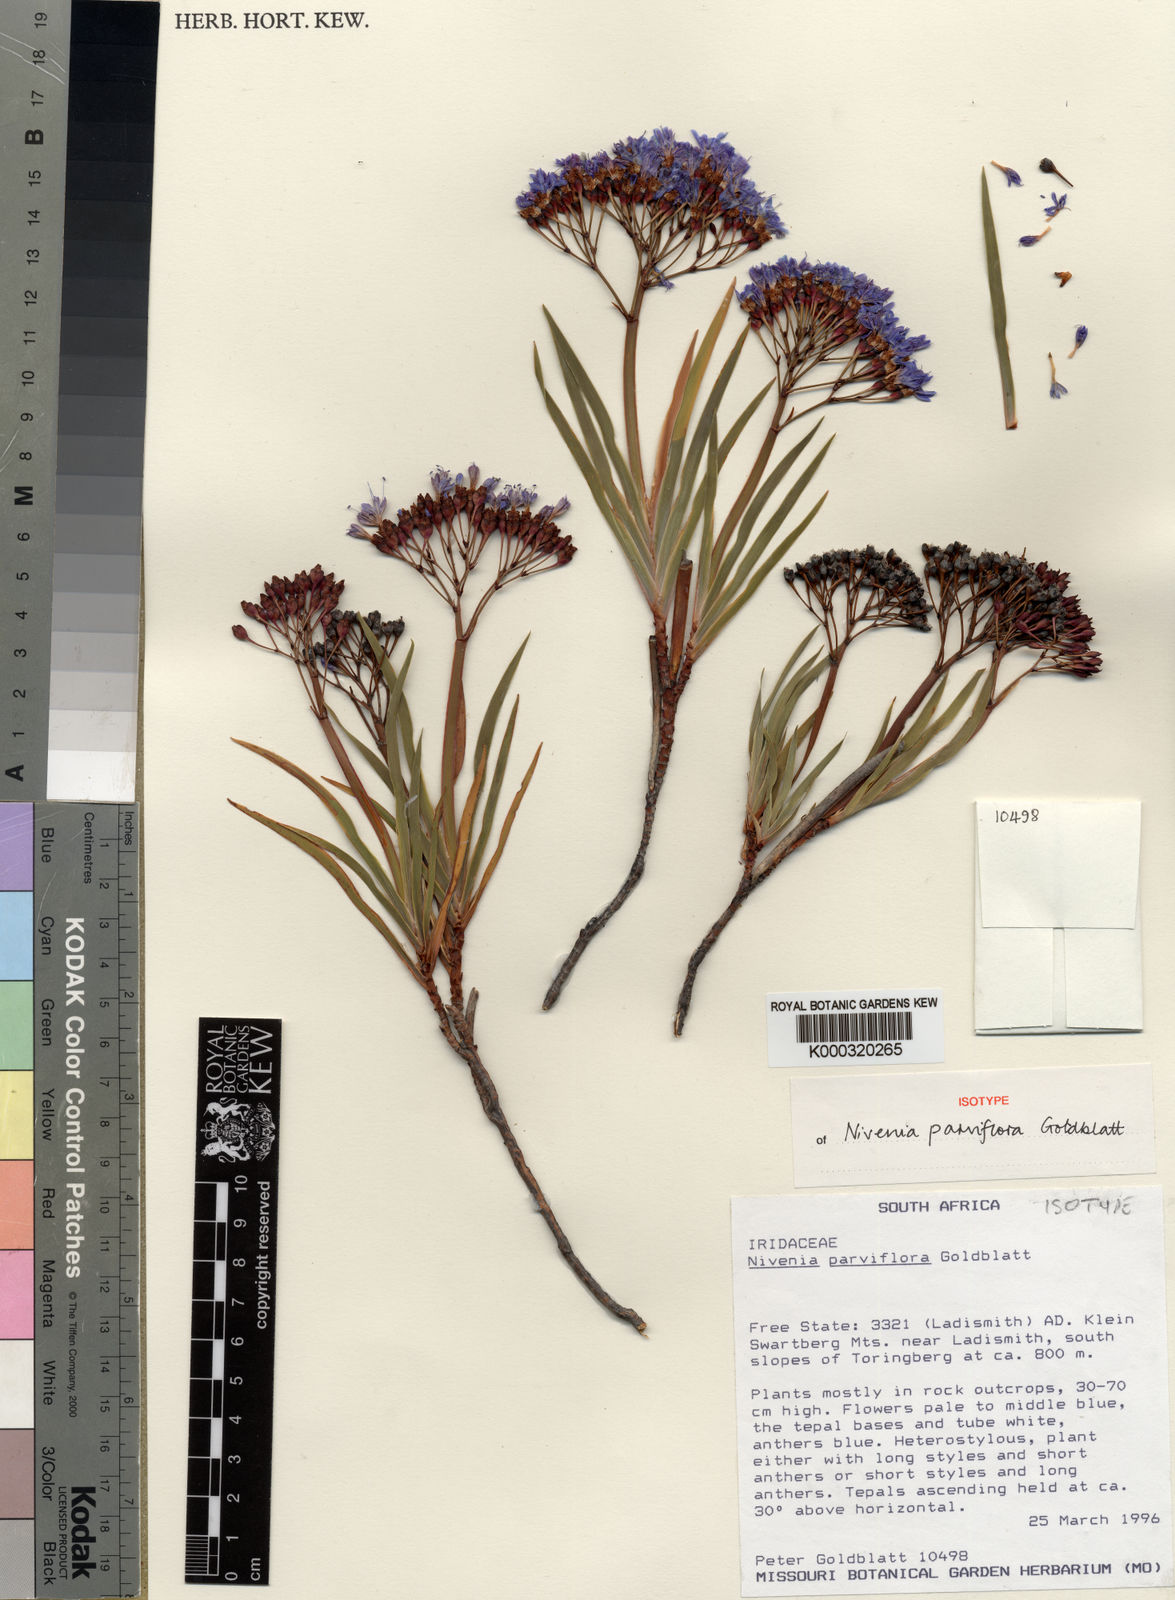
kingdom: Plantae
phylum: Tracheophyta
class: Liliopsida
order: Asparagales
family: Iridaceae
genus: Nivenia
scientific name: Nivenia parviflora
